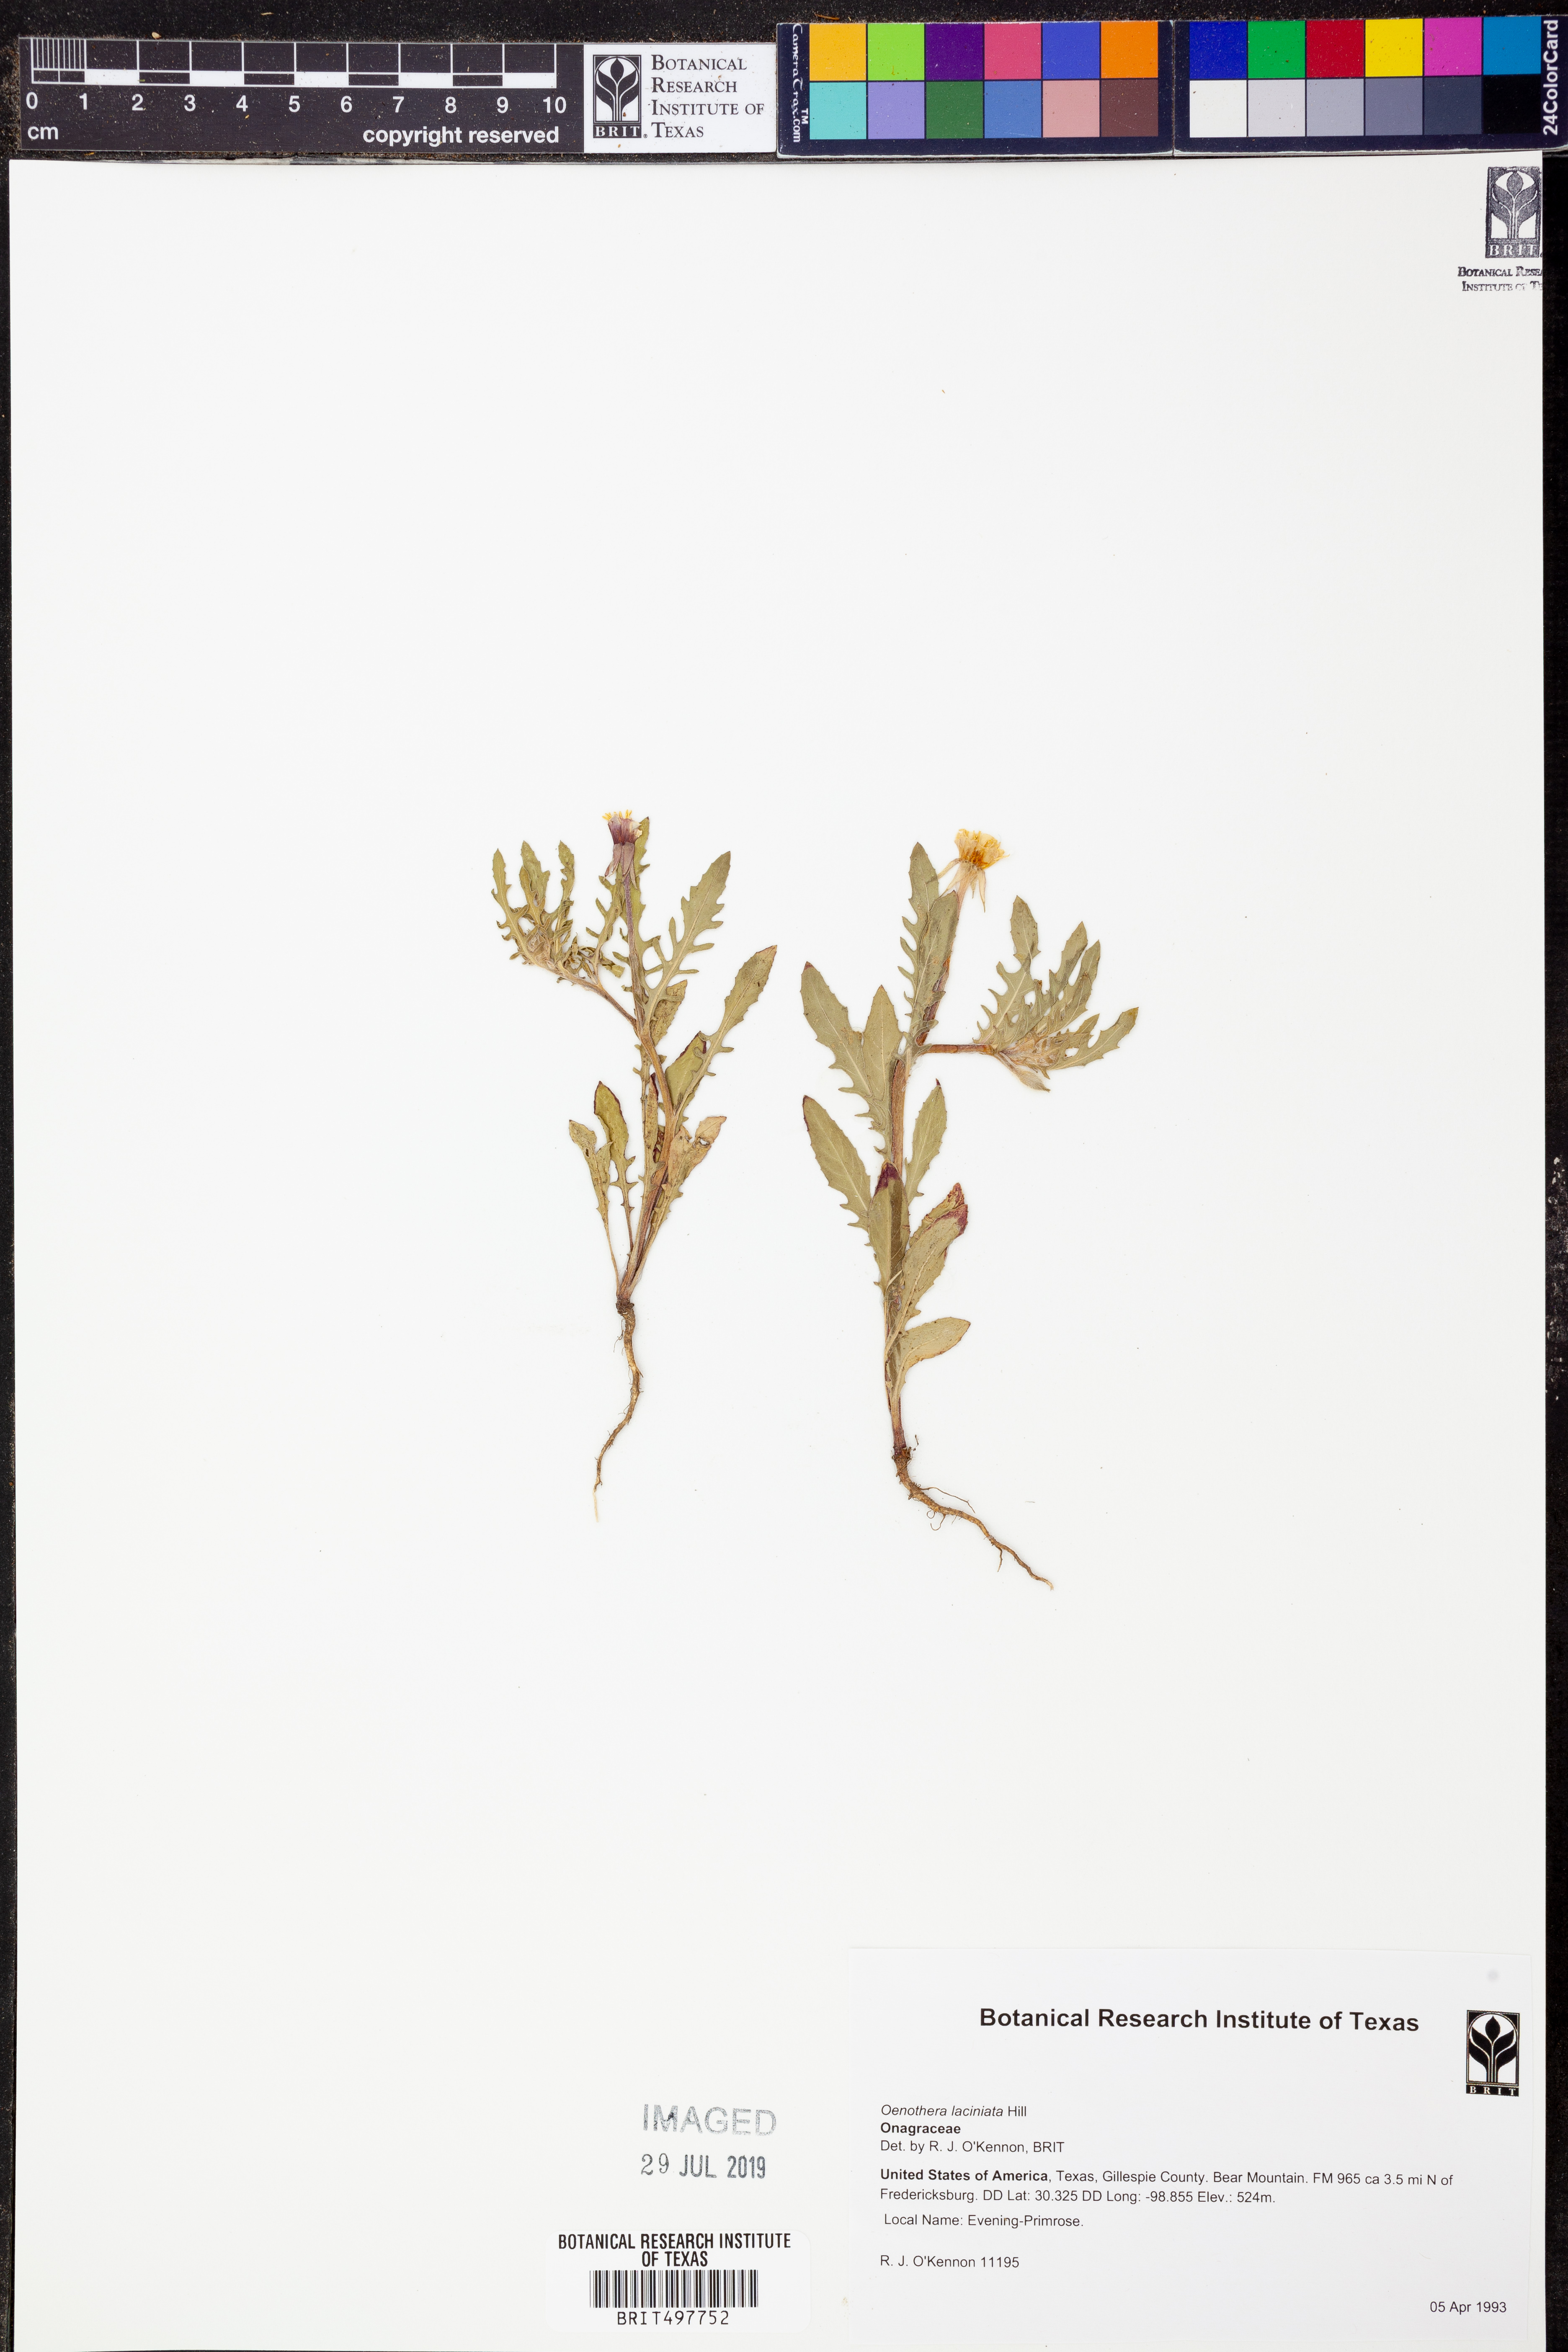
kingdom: Plantae
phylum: Tracheophyta
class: Magnoliopsida
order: Myrtales
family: Onagraceae
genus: Oenothera
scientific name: Oenothera laciniata
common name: Cut-leaved evening-primrose
